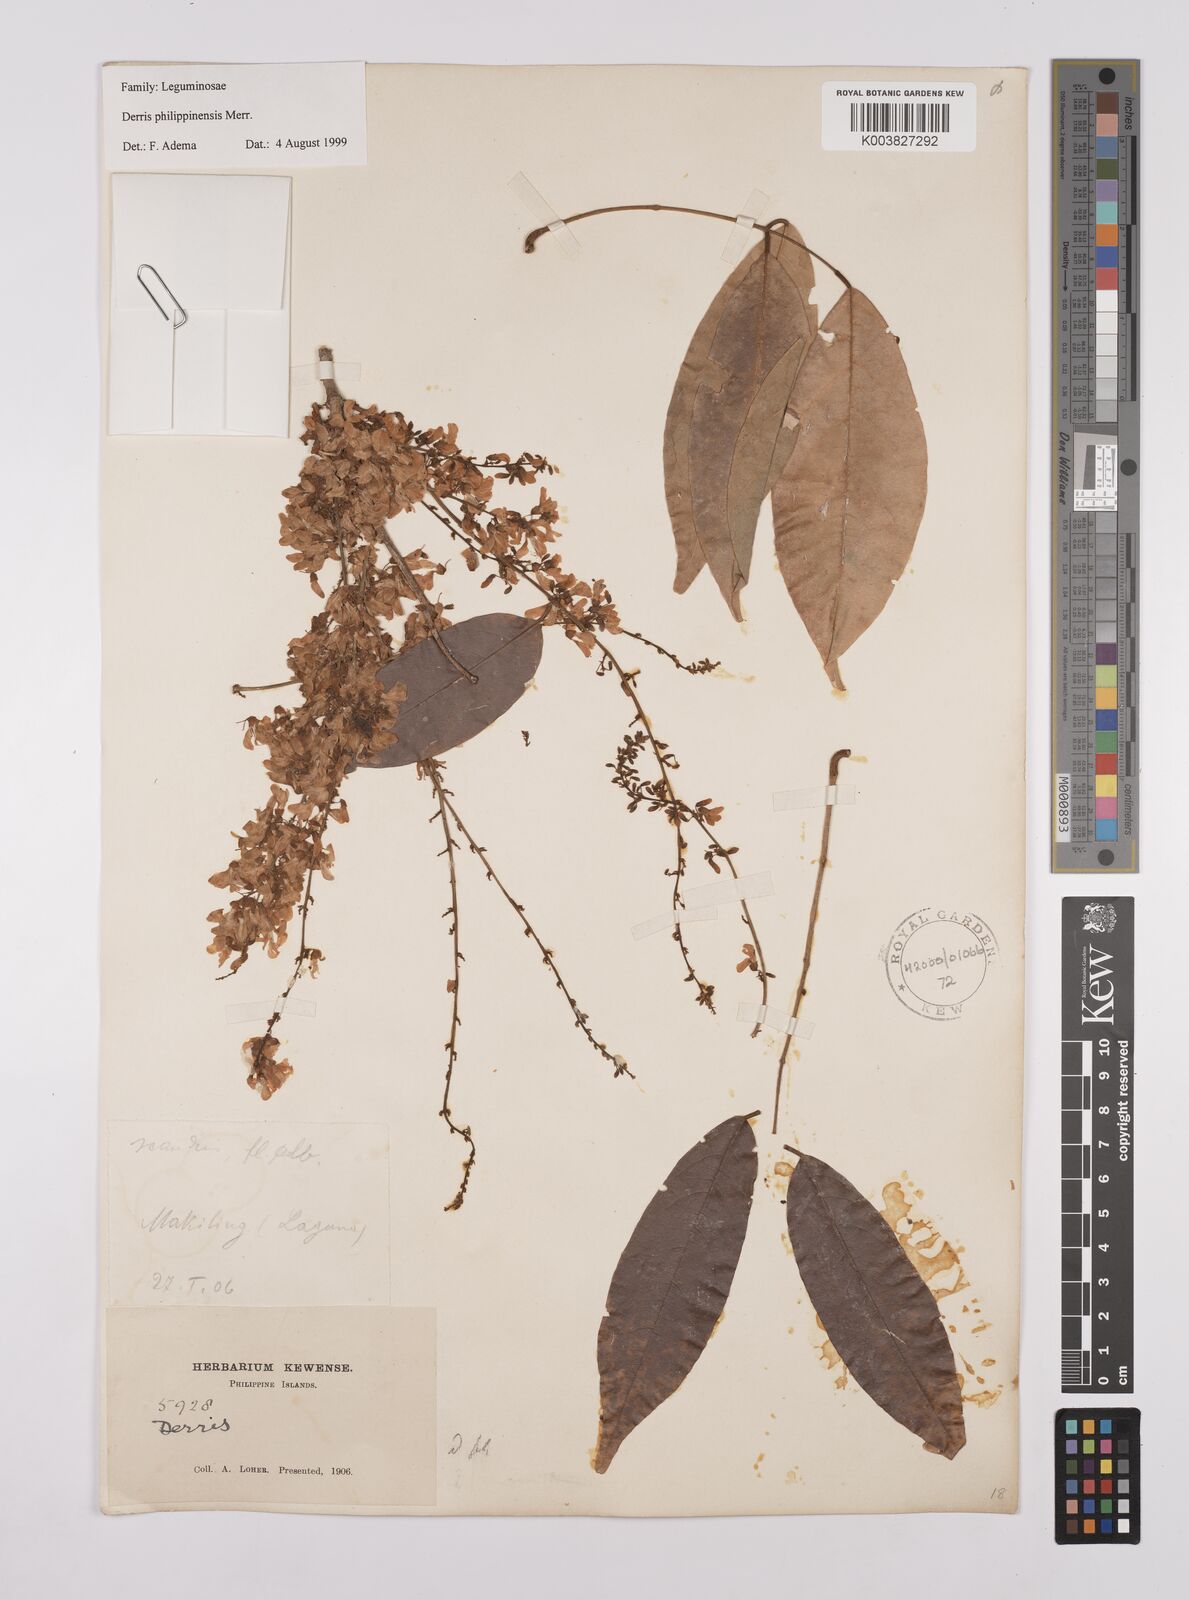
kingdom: Plantae
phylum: Tracheophyta
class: Magnoliopsida
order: Fabales
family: Fabaceae
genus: Brachypterum
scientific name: Brachypterum philippinense
